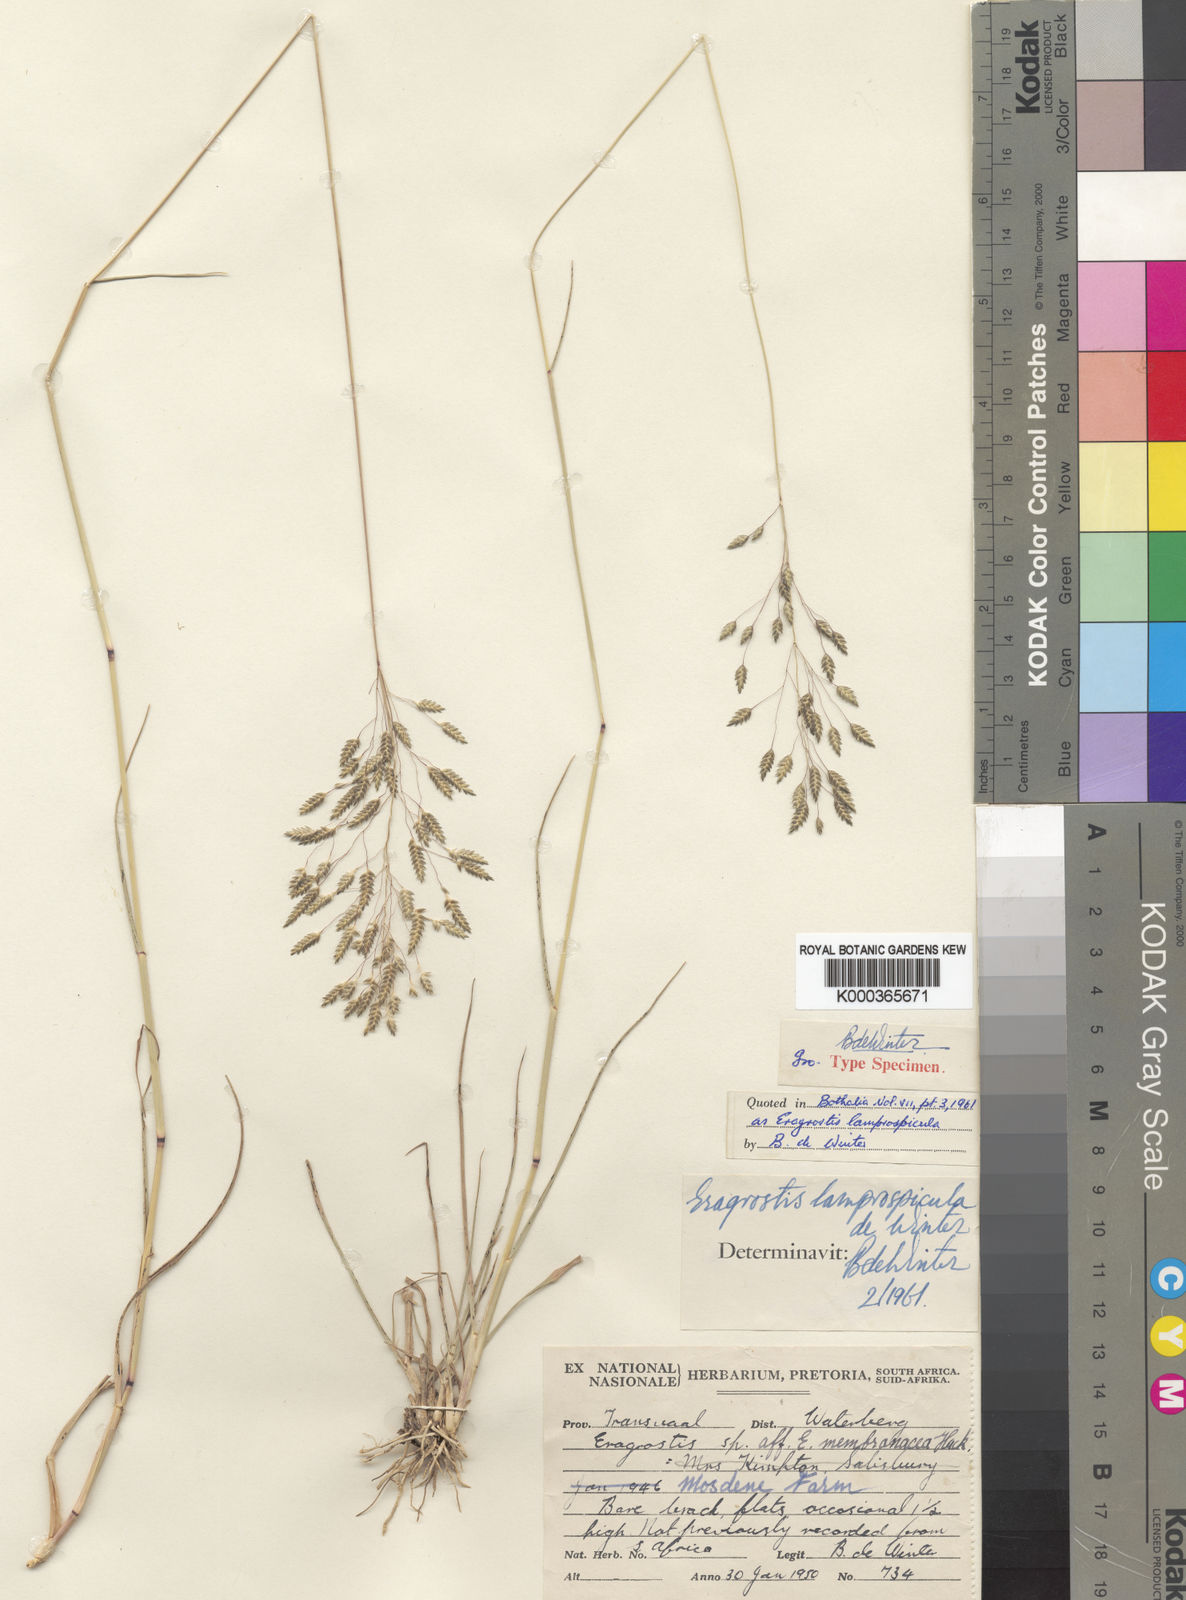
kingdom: Plantae
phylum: Tracheophyta
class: Liliopsida
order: Poales
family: Poaceae
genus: Eragrostis
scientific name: Eragrostis patentipilosa
